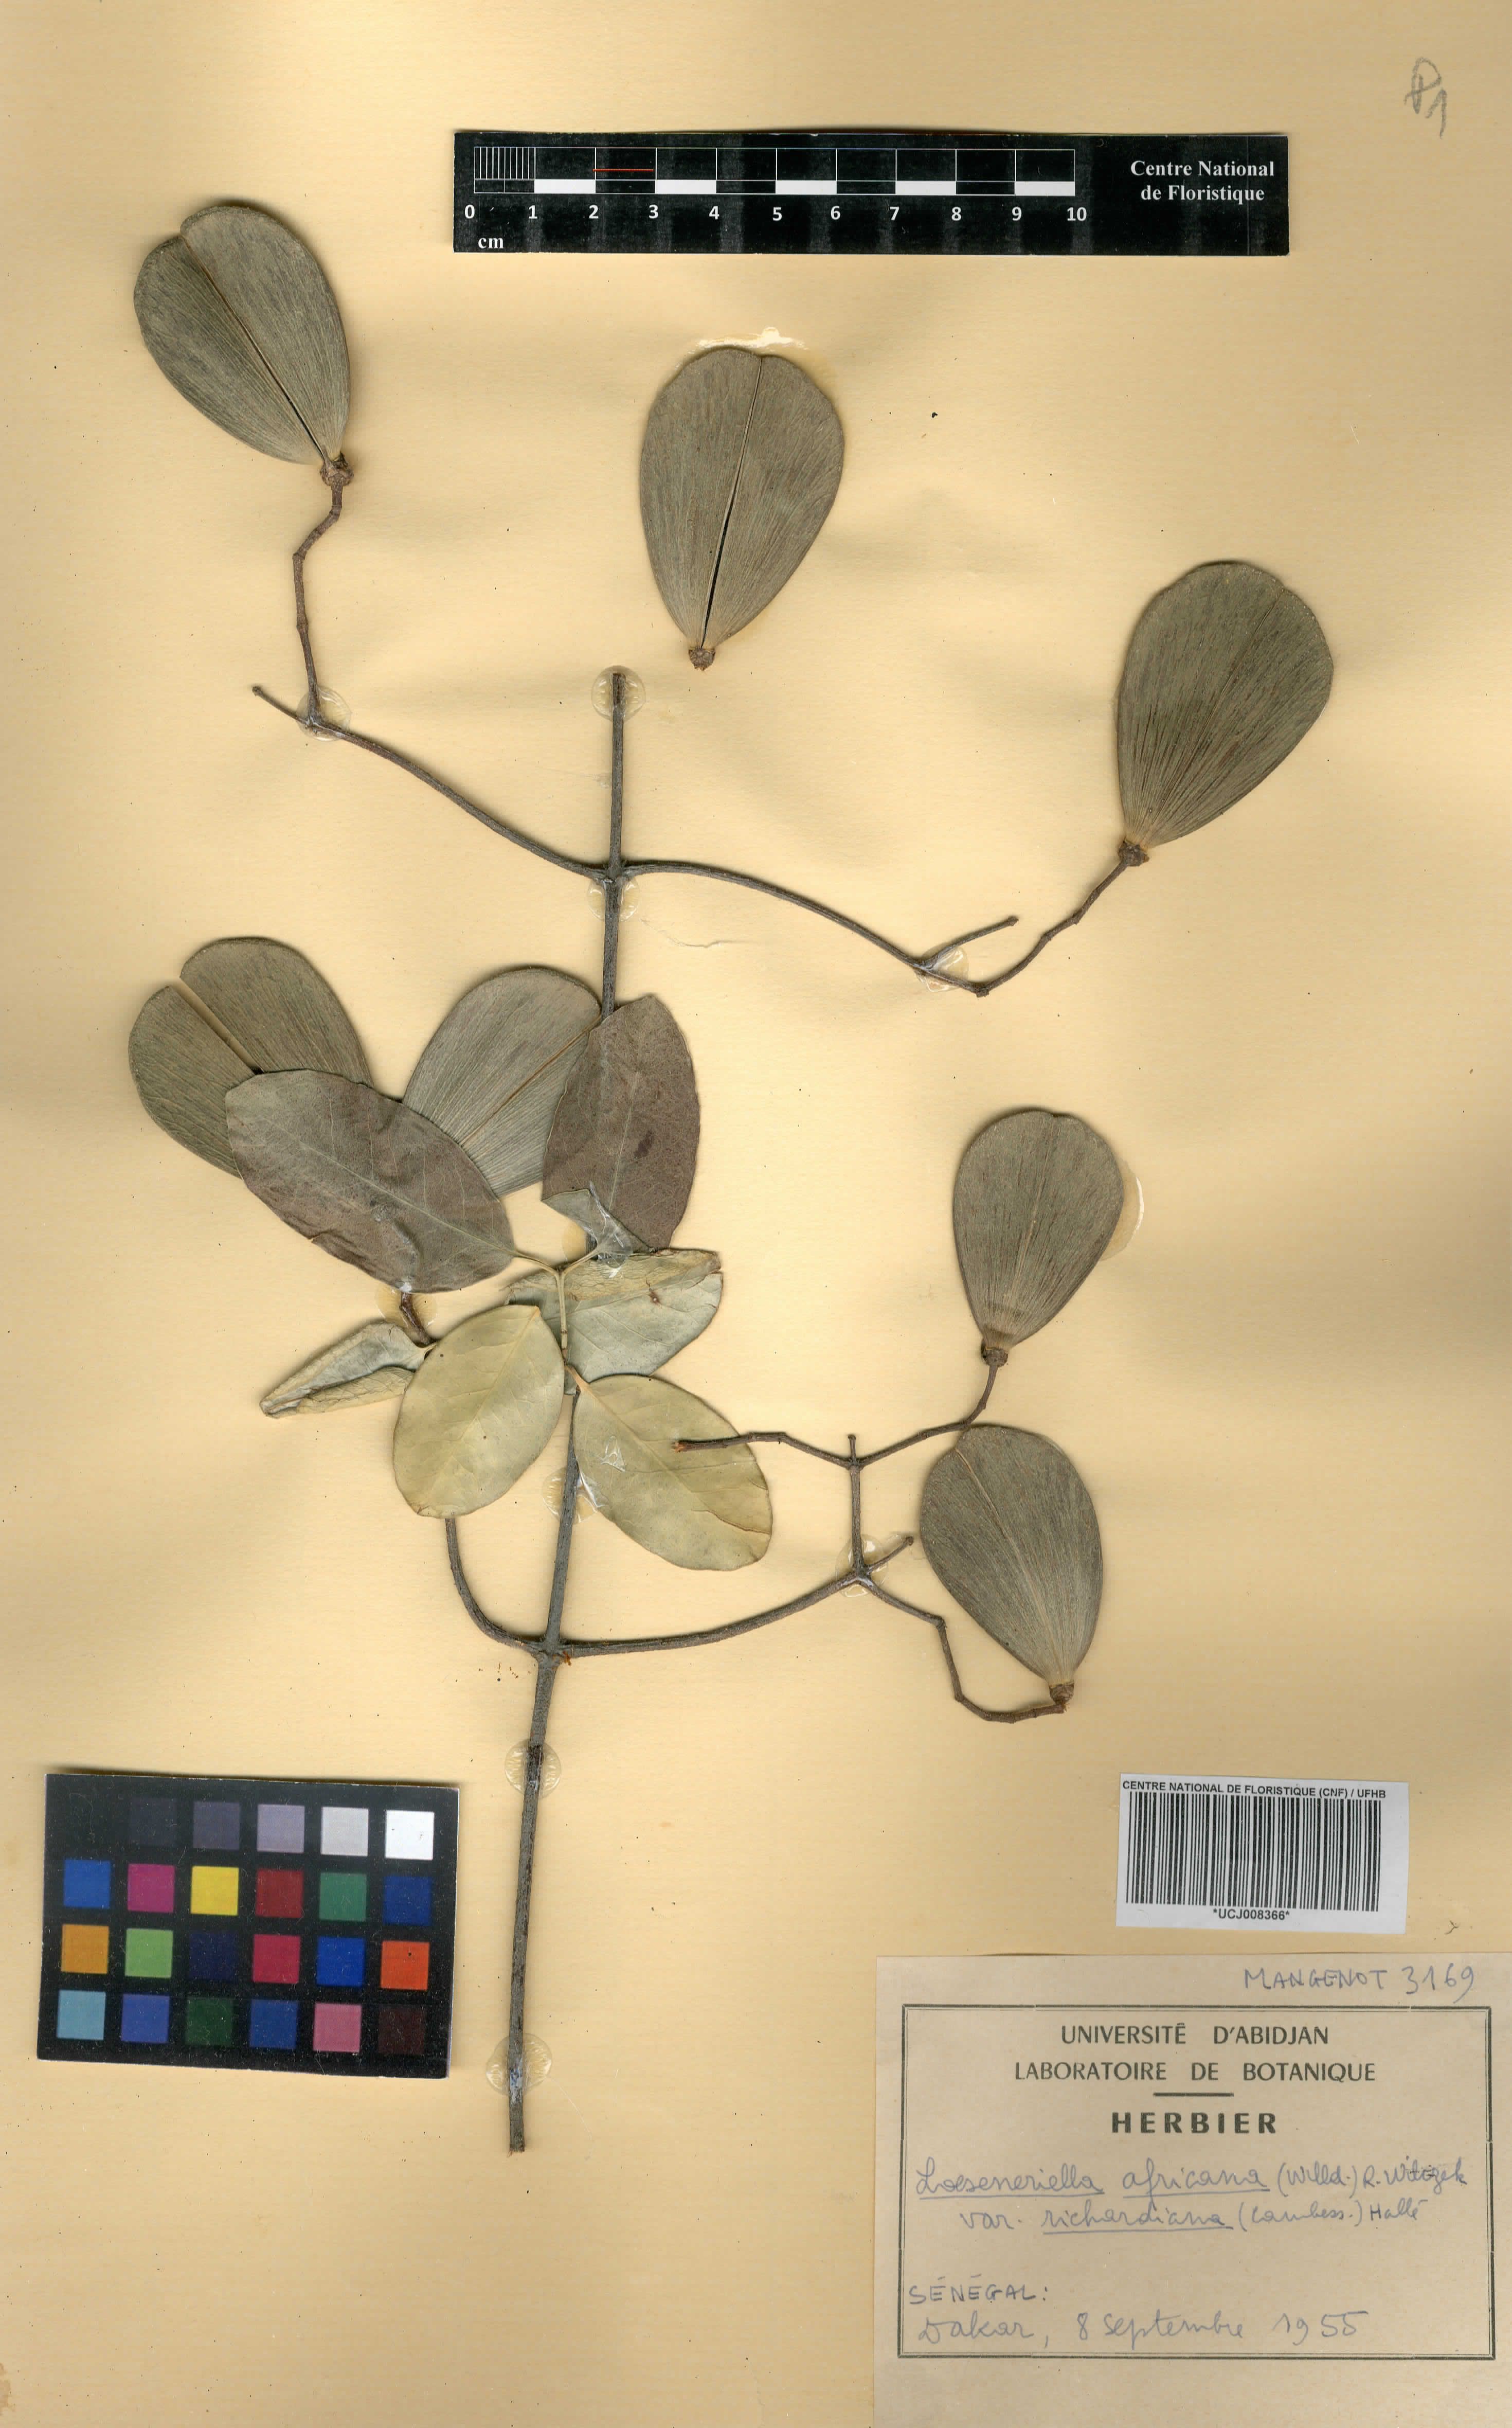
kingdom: Plantae
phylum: Tracheophyta
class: Magnoliopsida
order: Celastrales
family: Celastraceae
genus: Loeseneriella
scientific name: Loeseneriella africana
